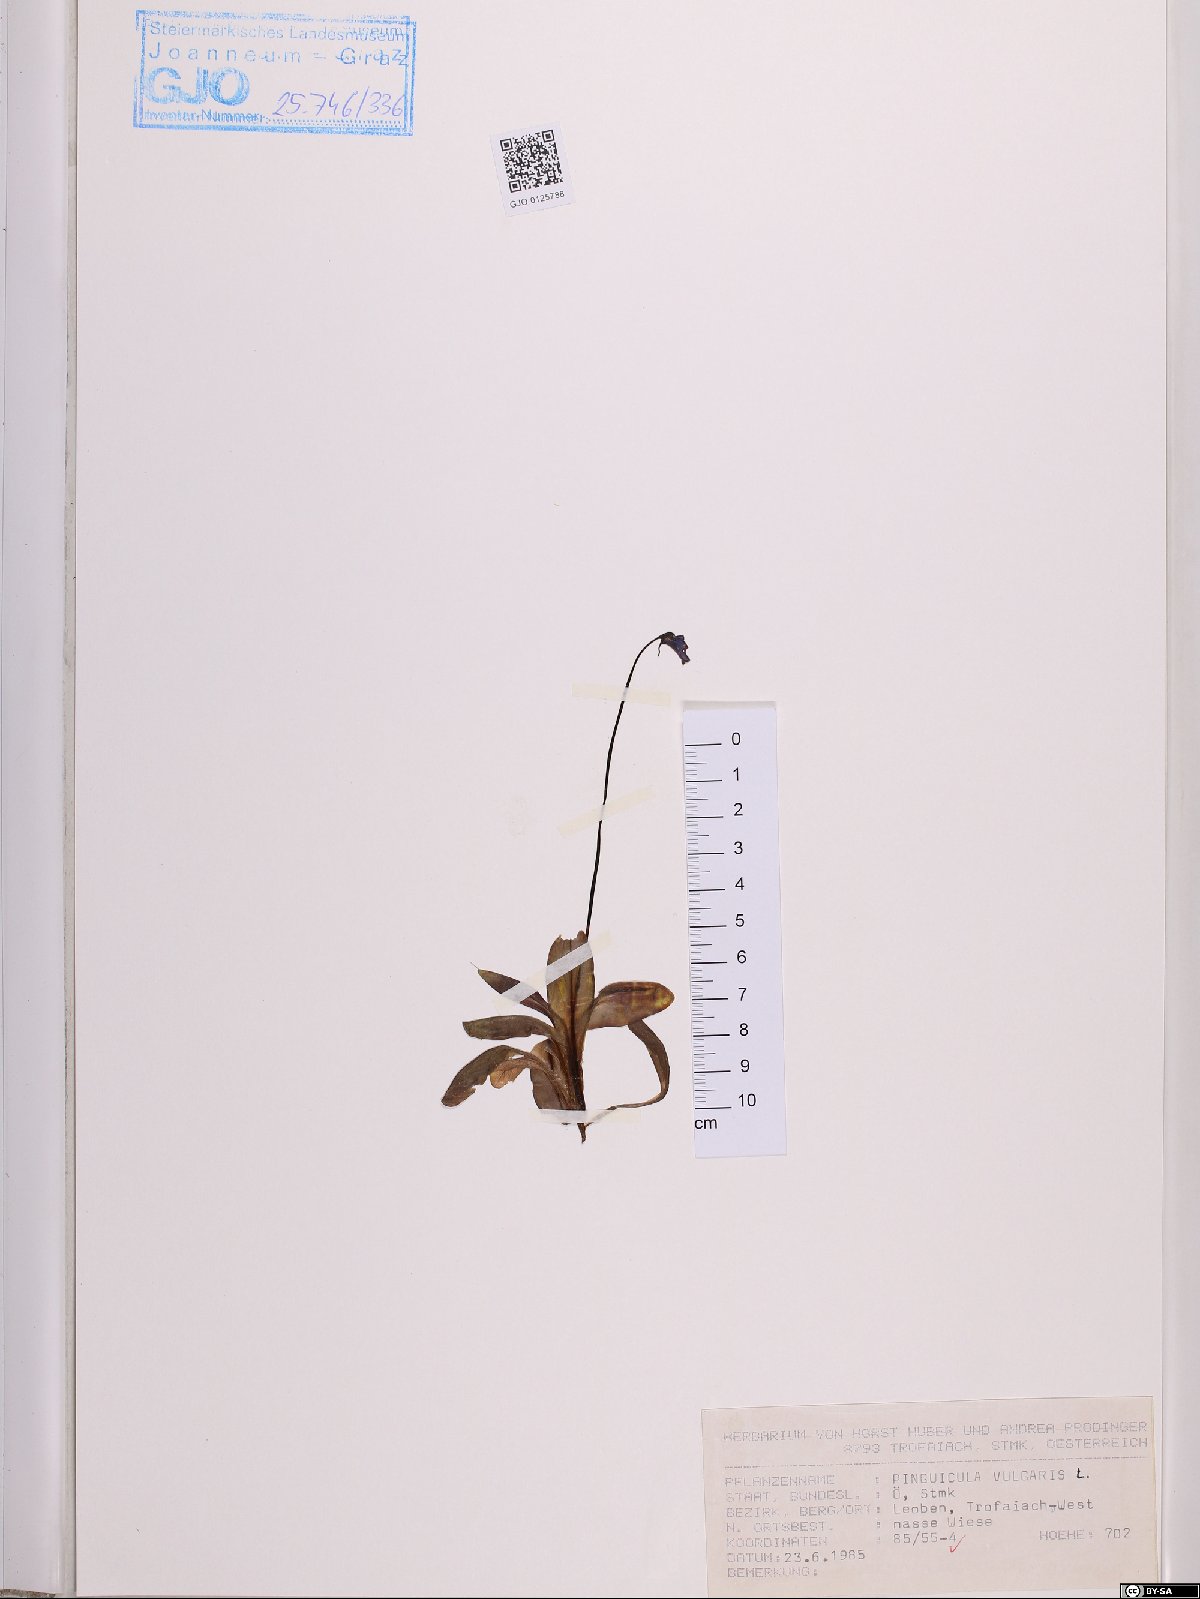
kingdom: Plantae
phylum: Tracheophyta
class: Magnoliopsida
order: Lamiales
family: Lentibulariaceae
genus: Pinguicula
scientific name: Pinguicula vulgaris
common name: Common butterwort
